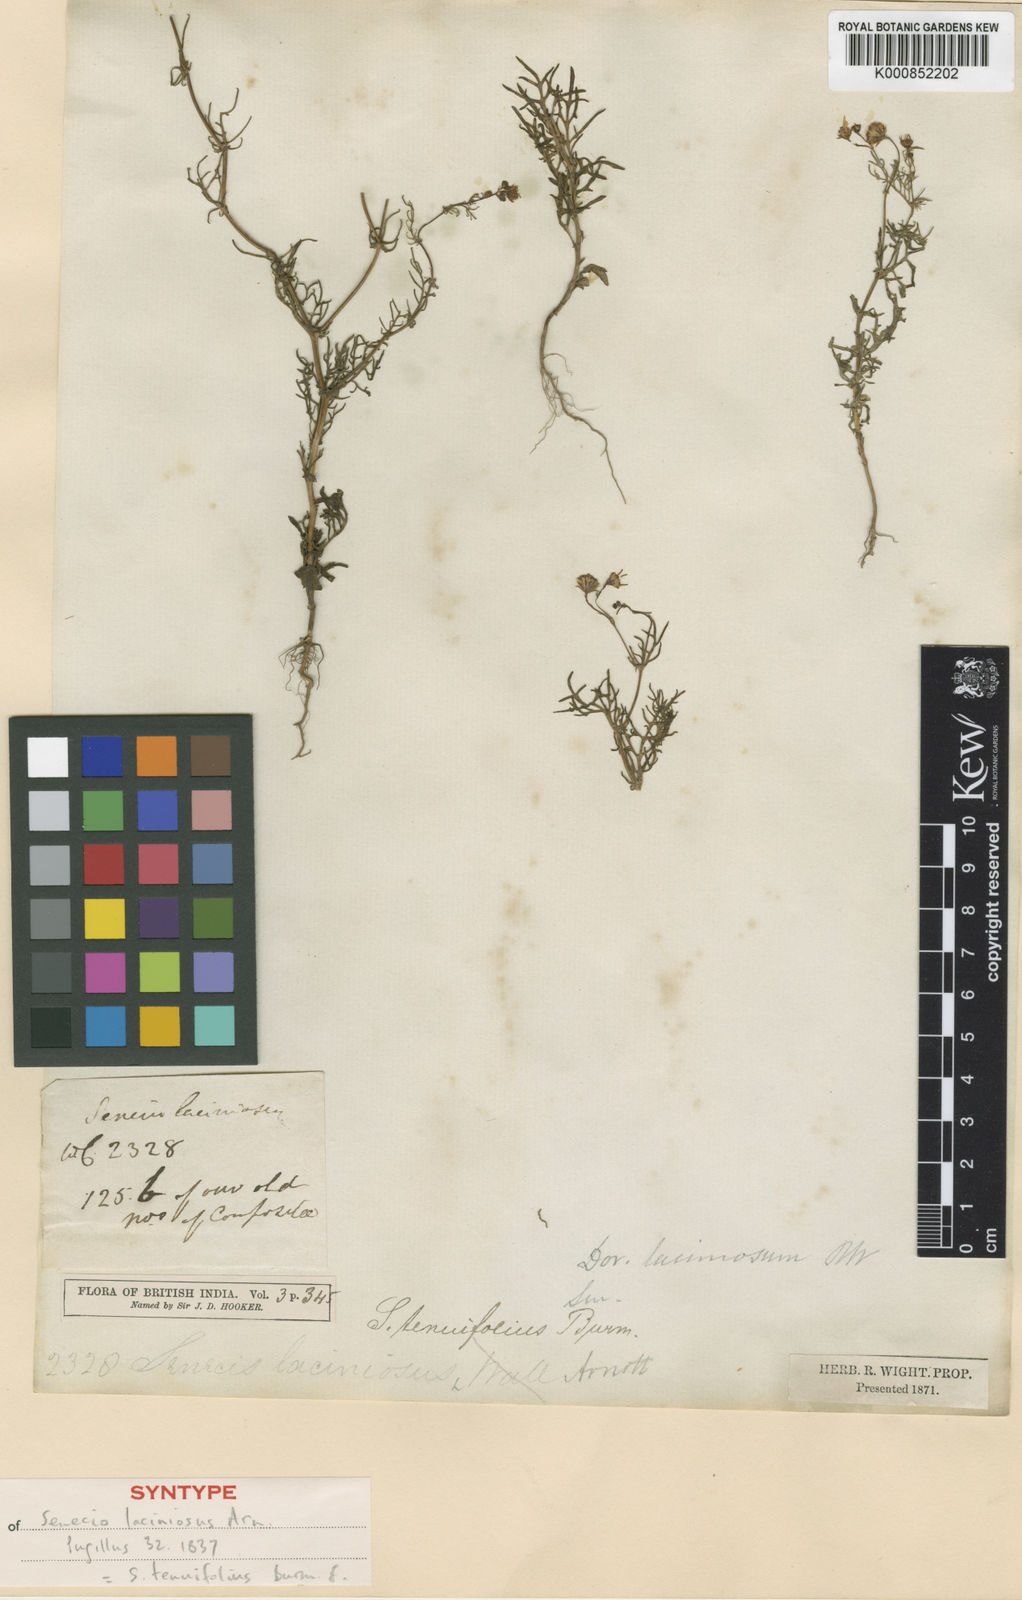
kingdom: Plantae
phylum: Tracheophyta
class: Magnoliopsida
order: Asterales
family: Asteraceae
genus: Senecio
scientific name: Senecio tenuifolius
